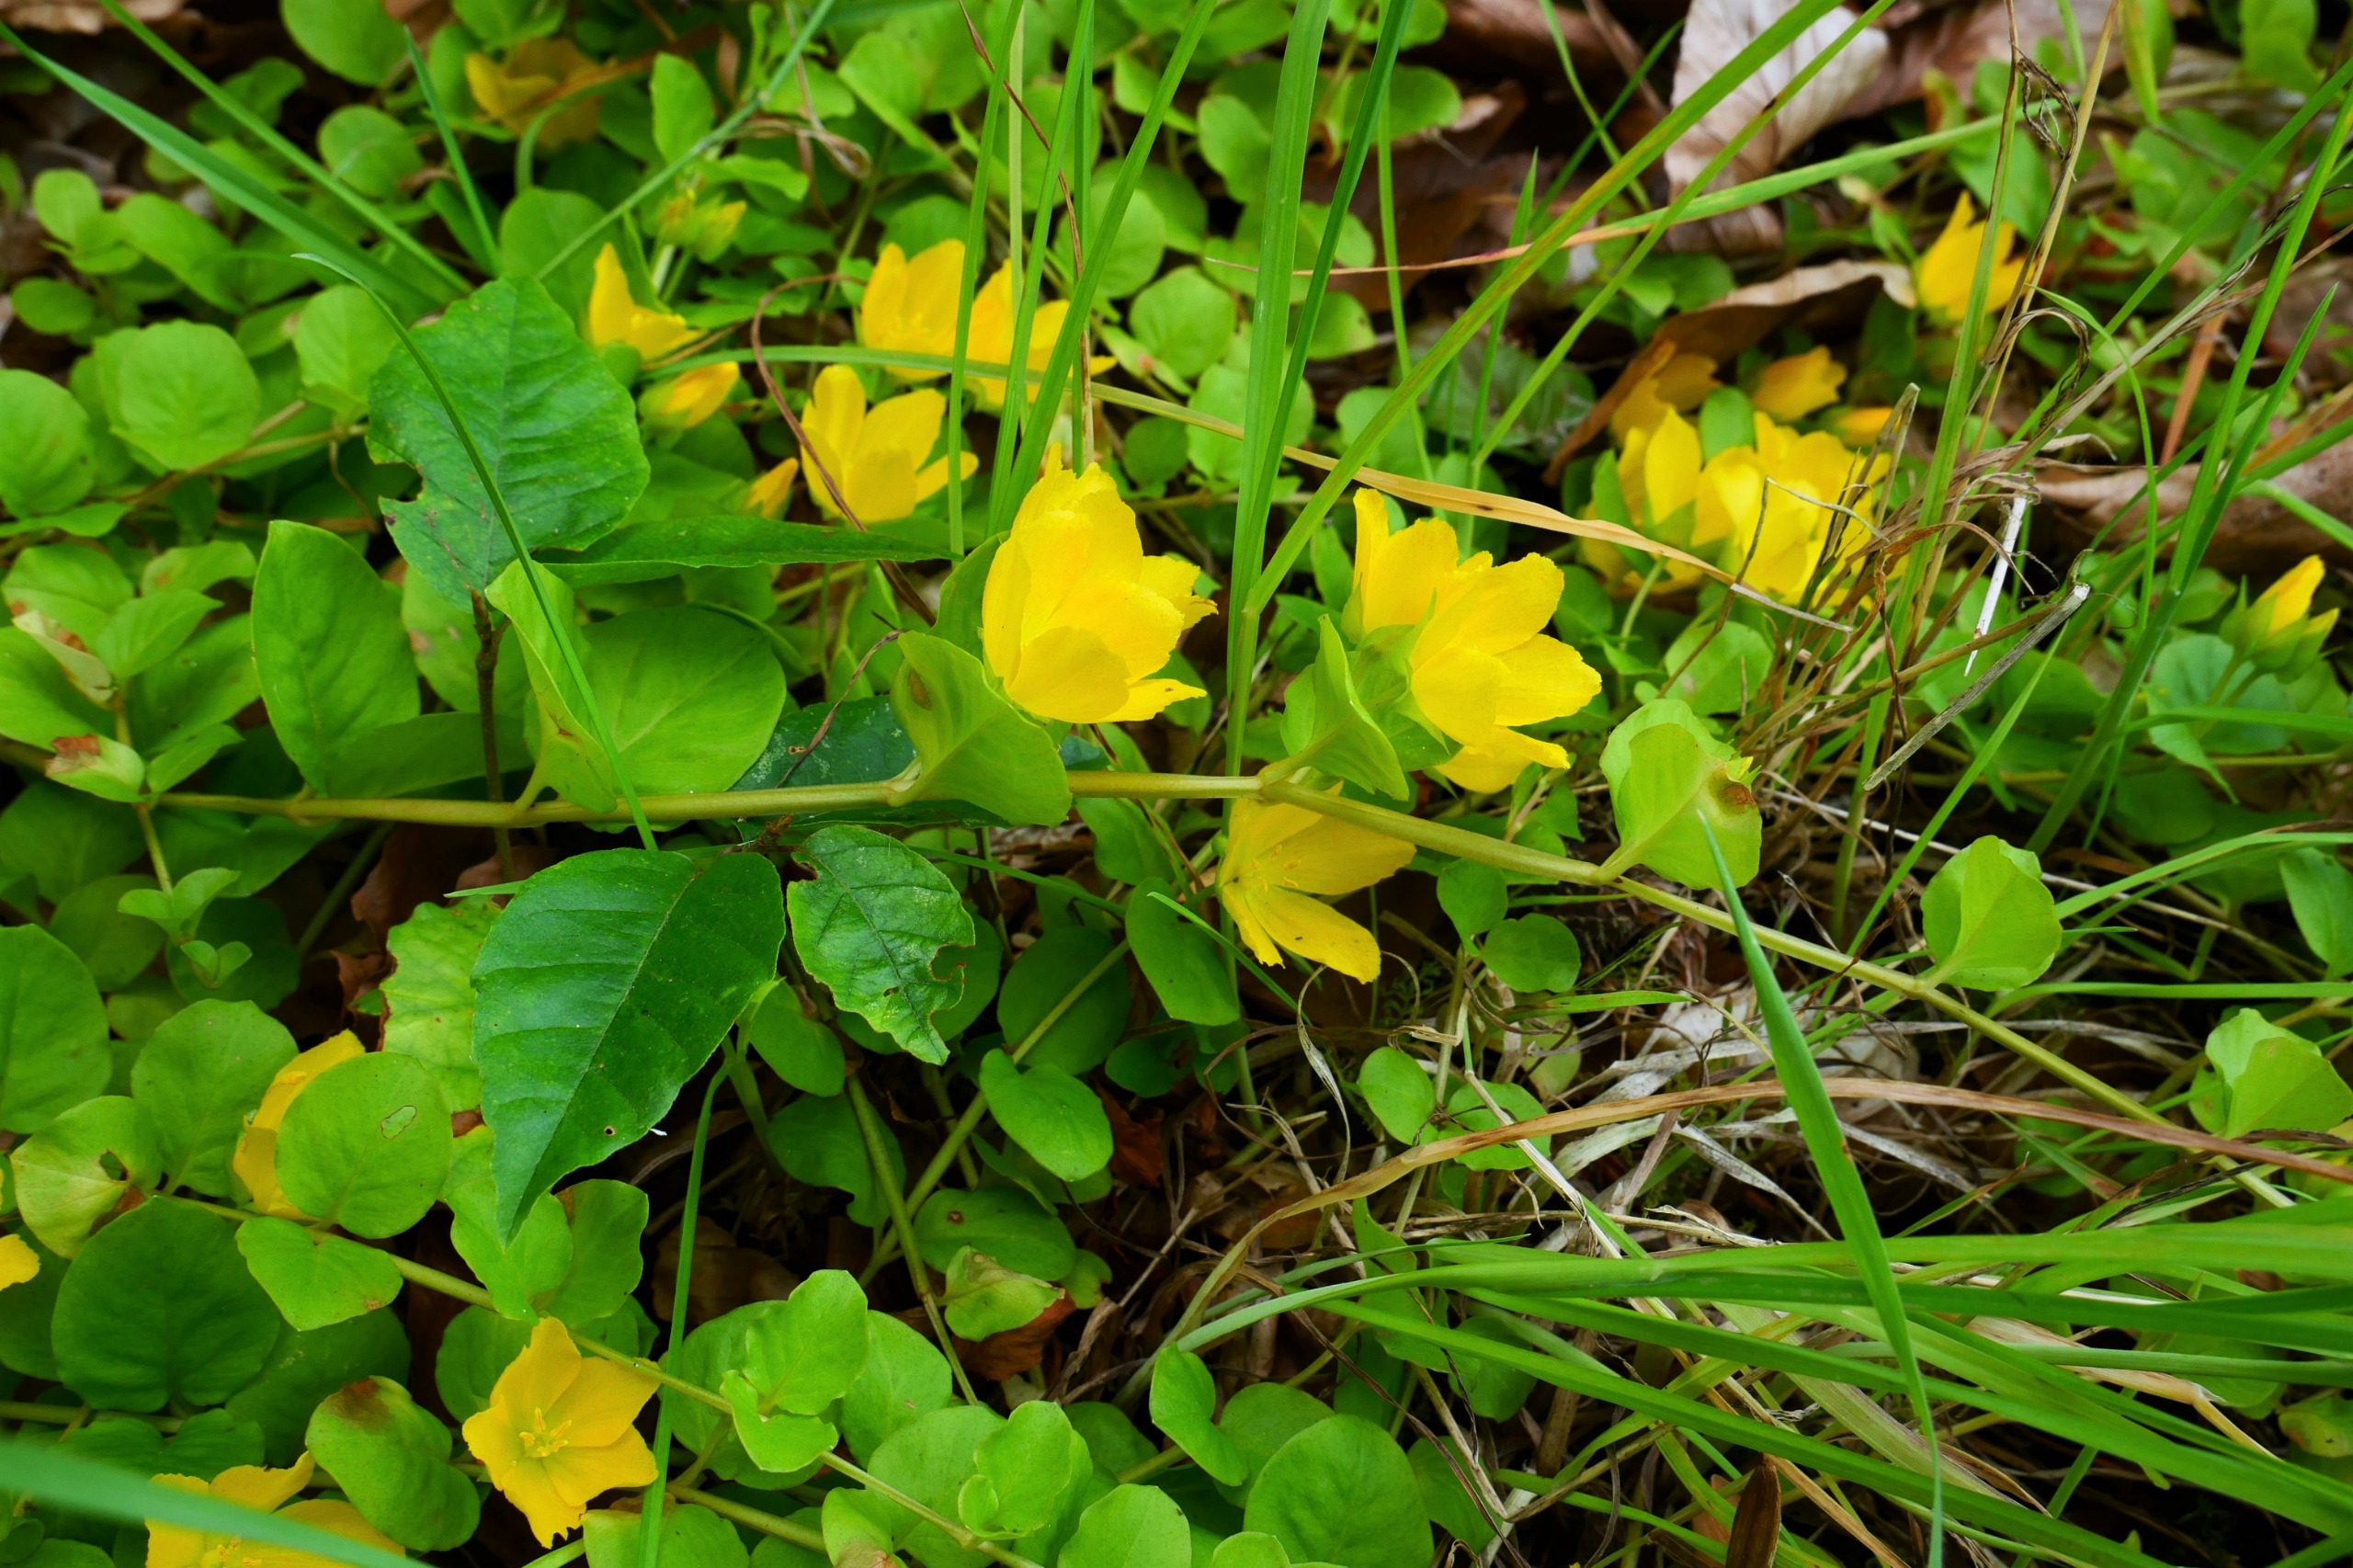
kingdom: Plantae
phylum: Tracheophyta
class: Magnoliopsida
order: Ericales
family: Primulaceae
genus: Lysimachia
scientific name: Lysimachia nummularia
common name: Pengebladet fredløs
